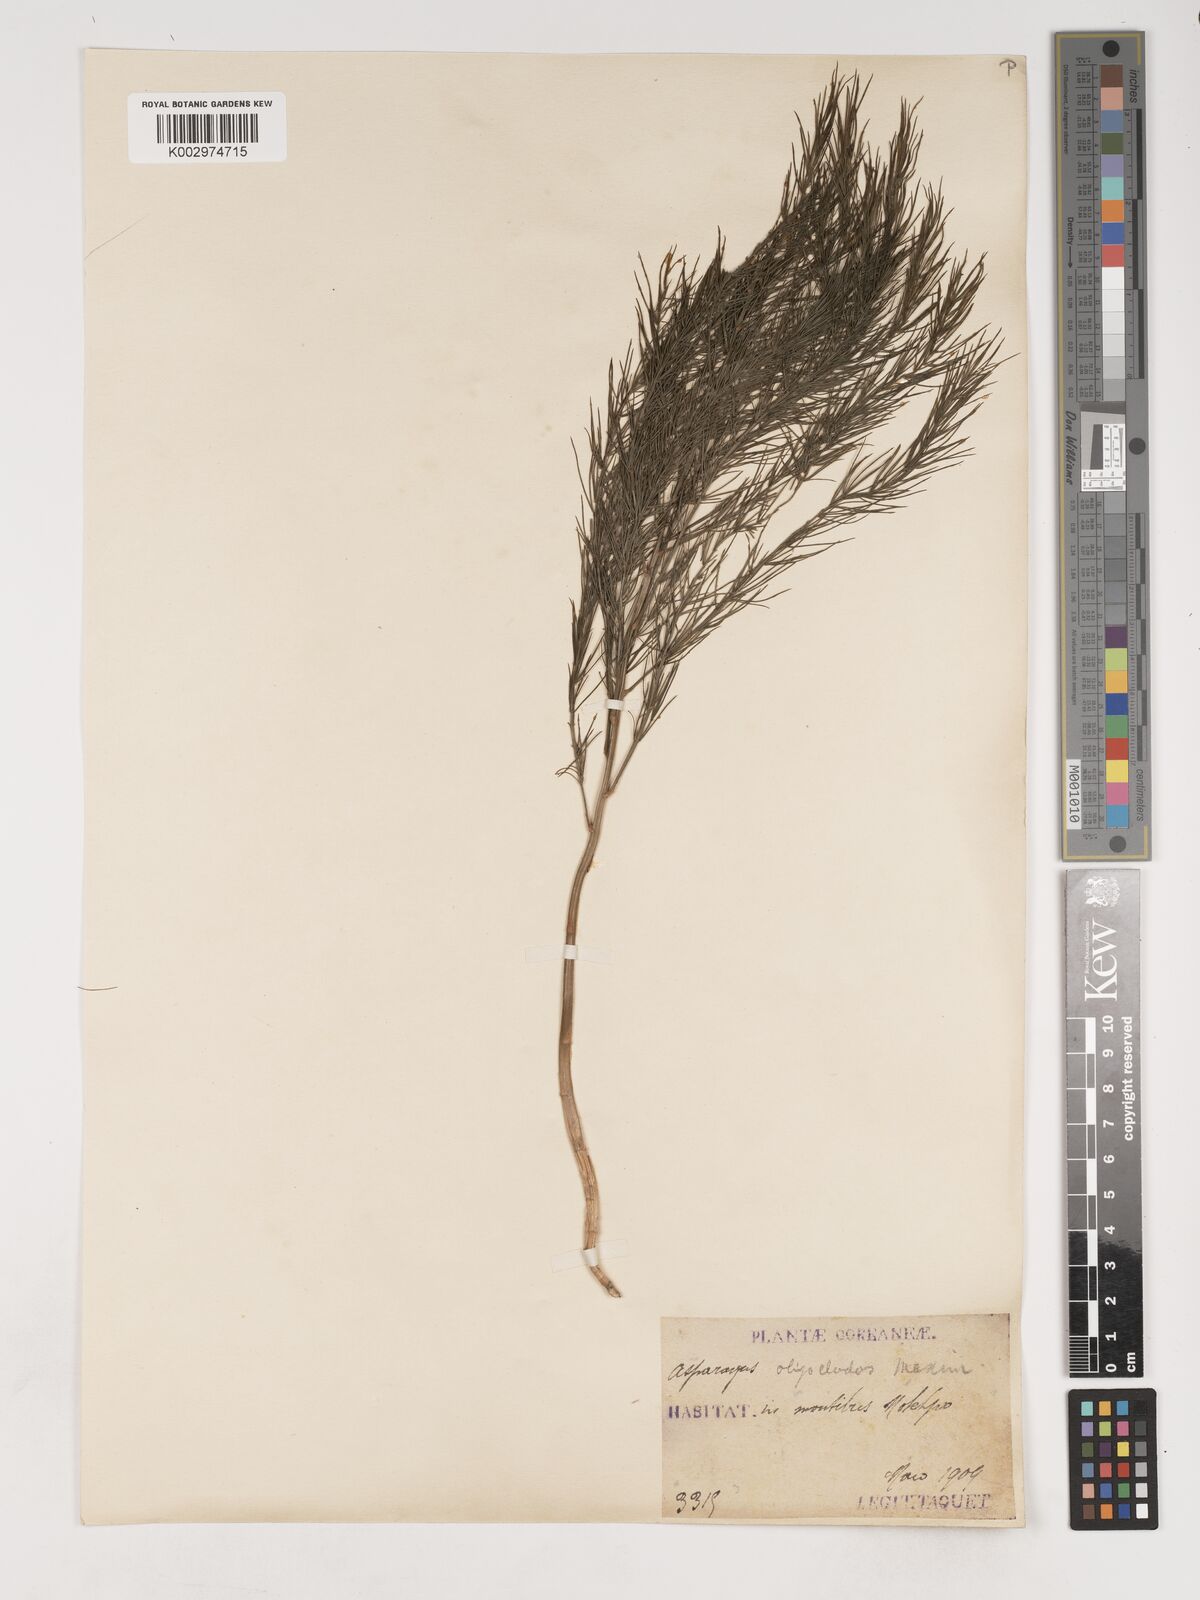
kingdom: Plantae
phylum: Tracheophyta
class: Liliopsida
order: Asparagales
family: Asparagaceae
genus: Asparagus
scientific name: Asparagus oligoclonos
